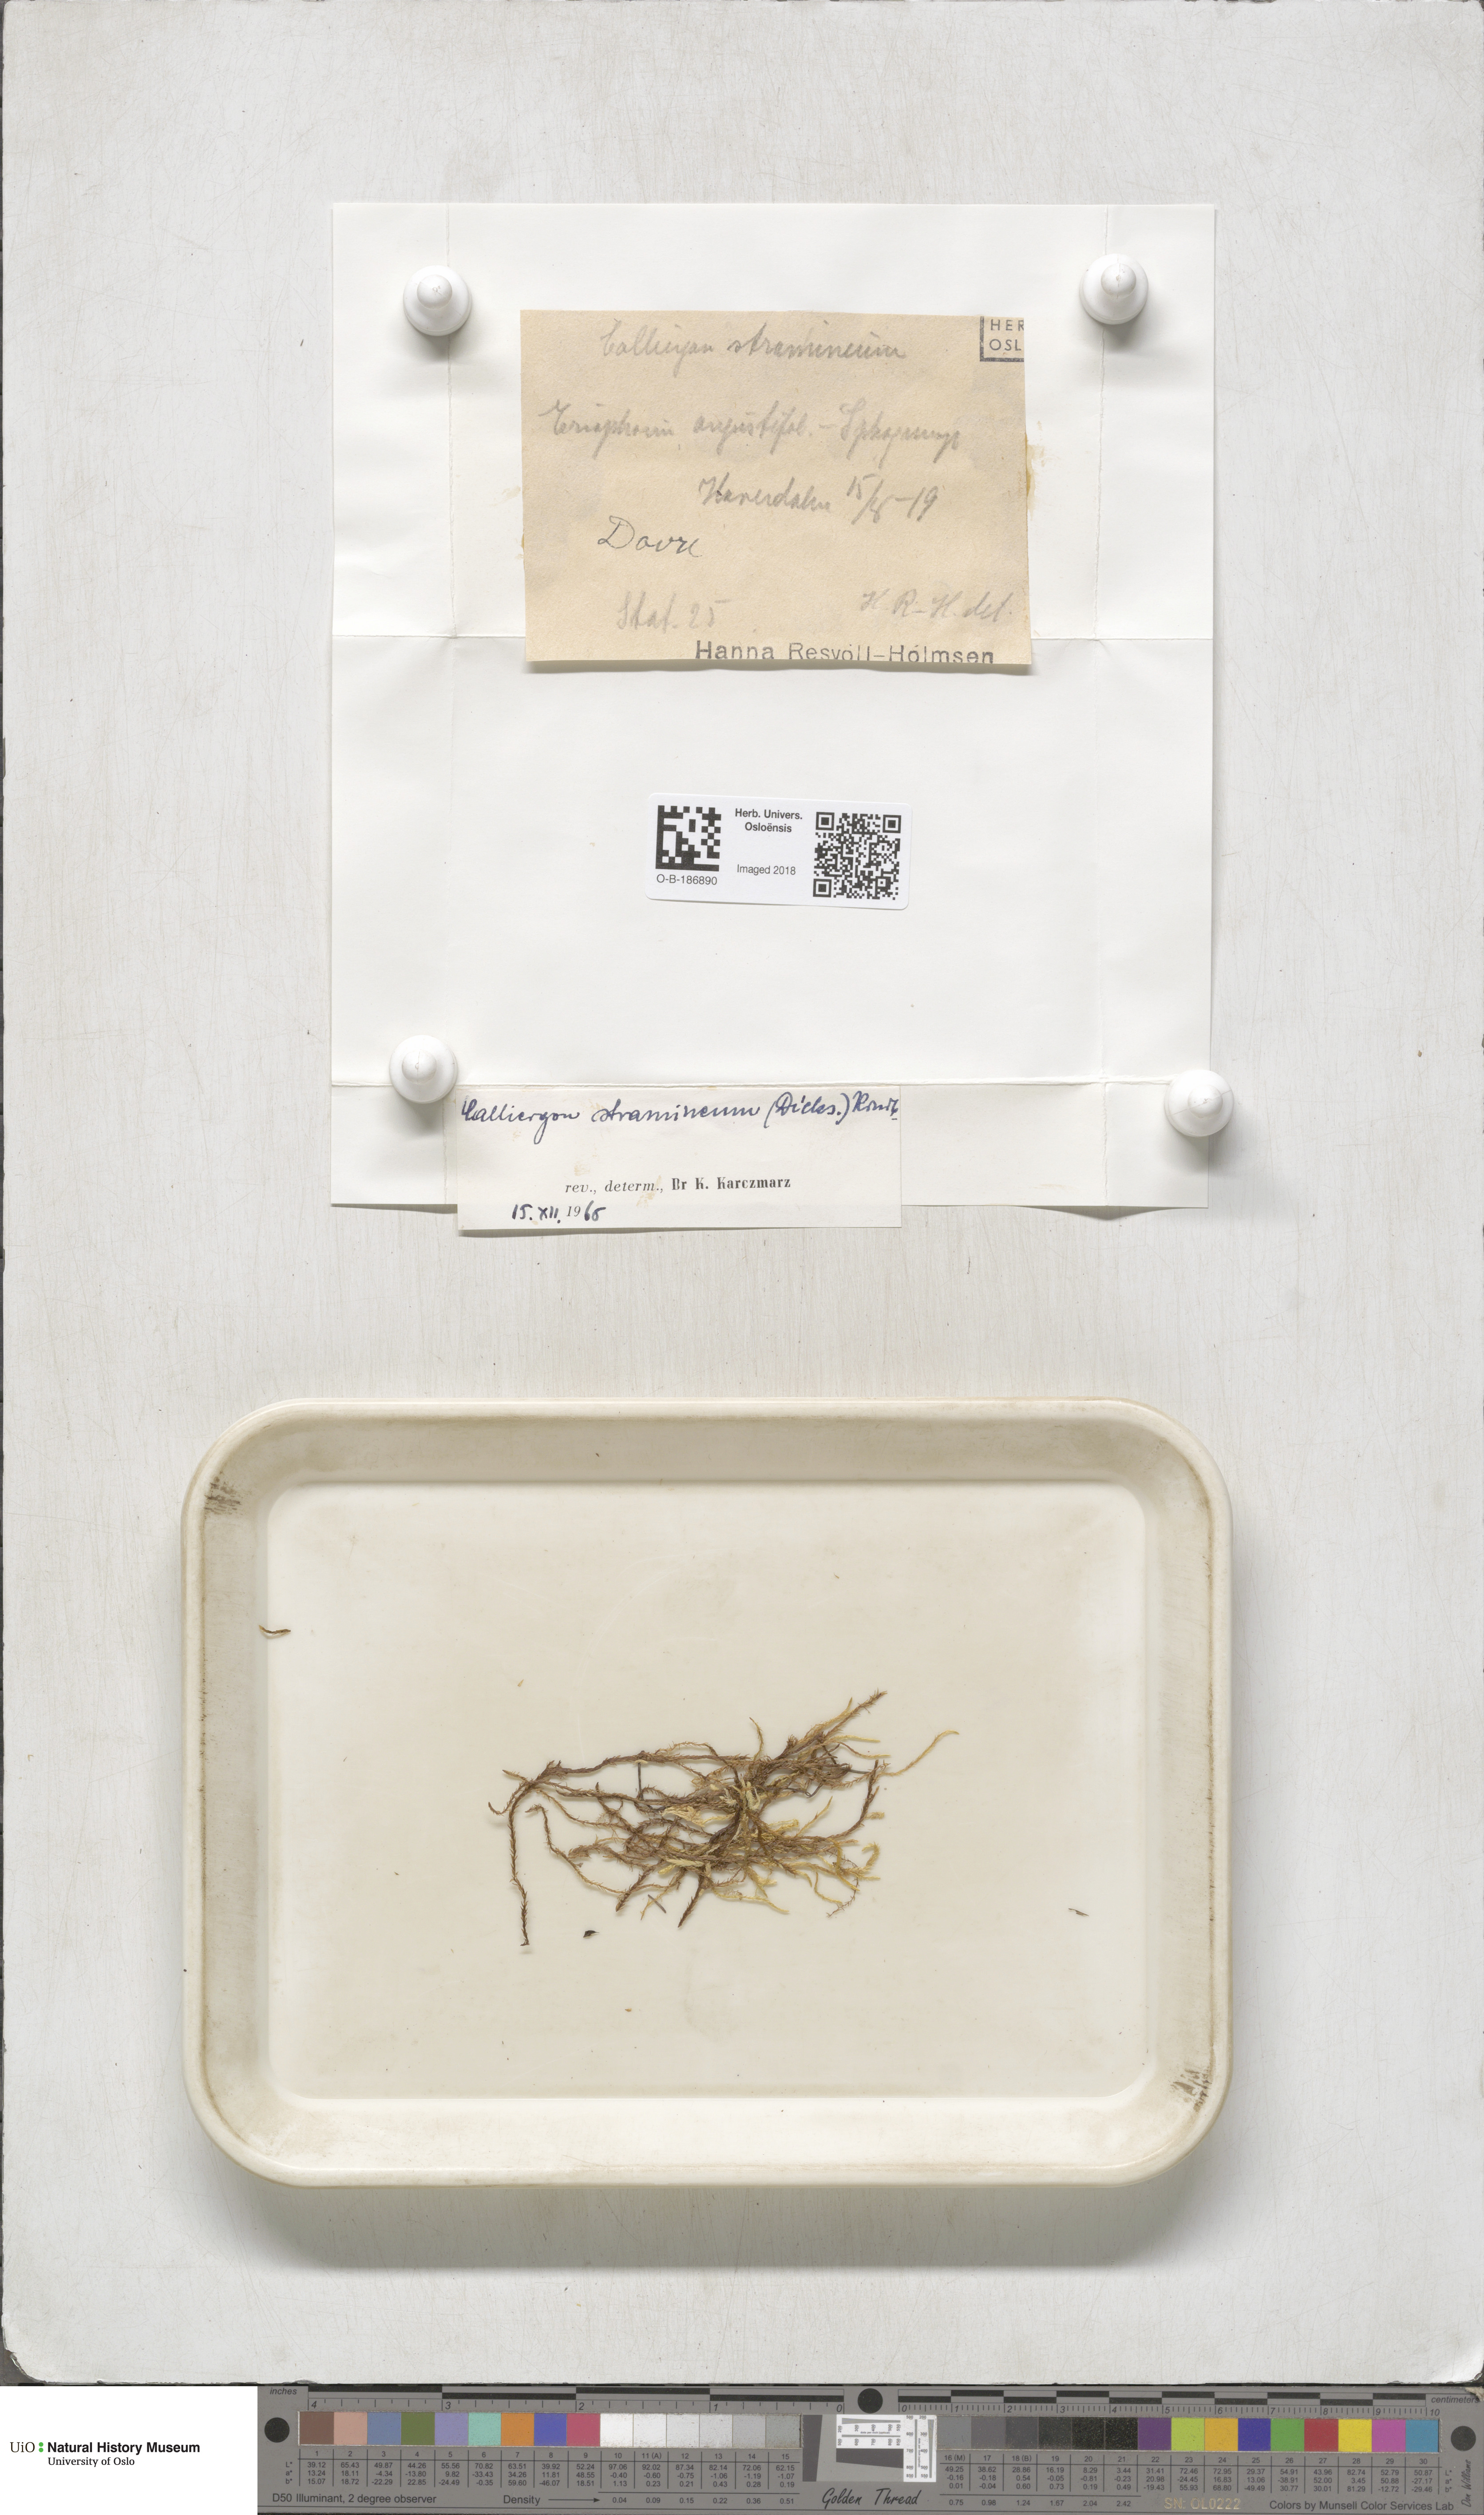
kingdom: Plantae
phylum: Bryophyta
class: Bryopsida
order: Hypnales
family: Calliergonaceae
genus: Straminergon
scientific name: Straminergon stramineum
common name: Straw moss
